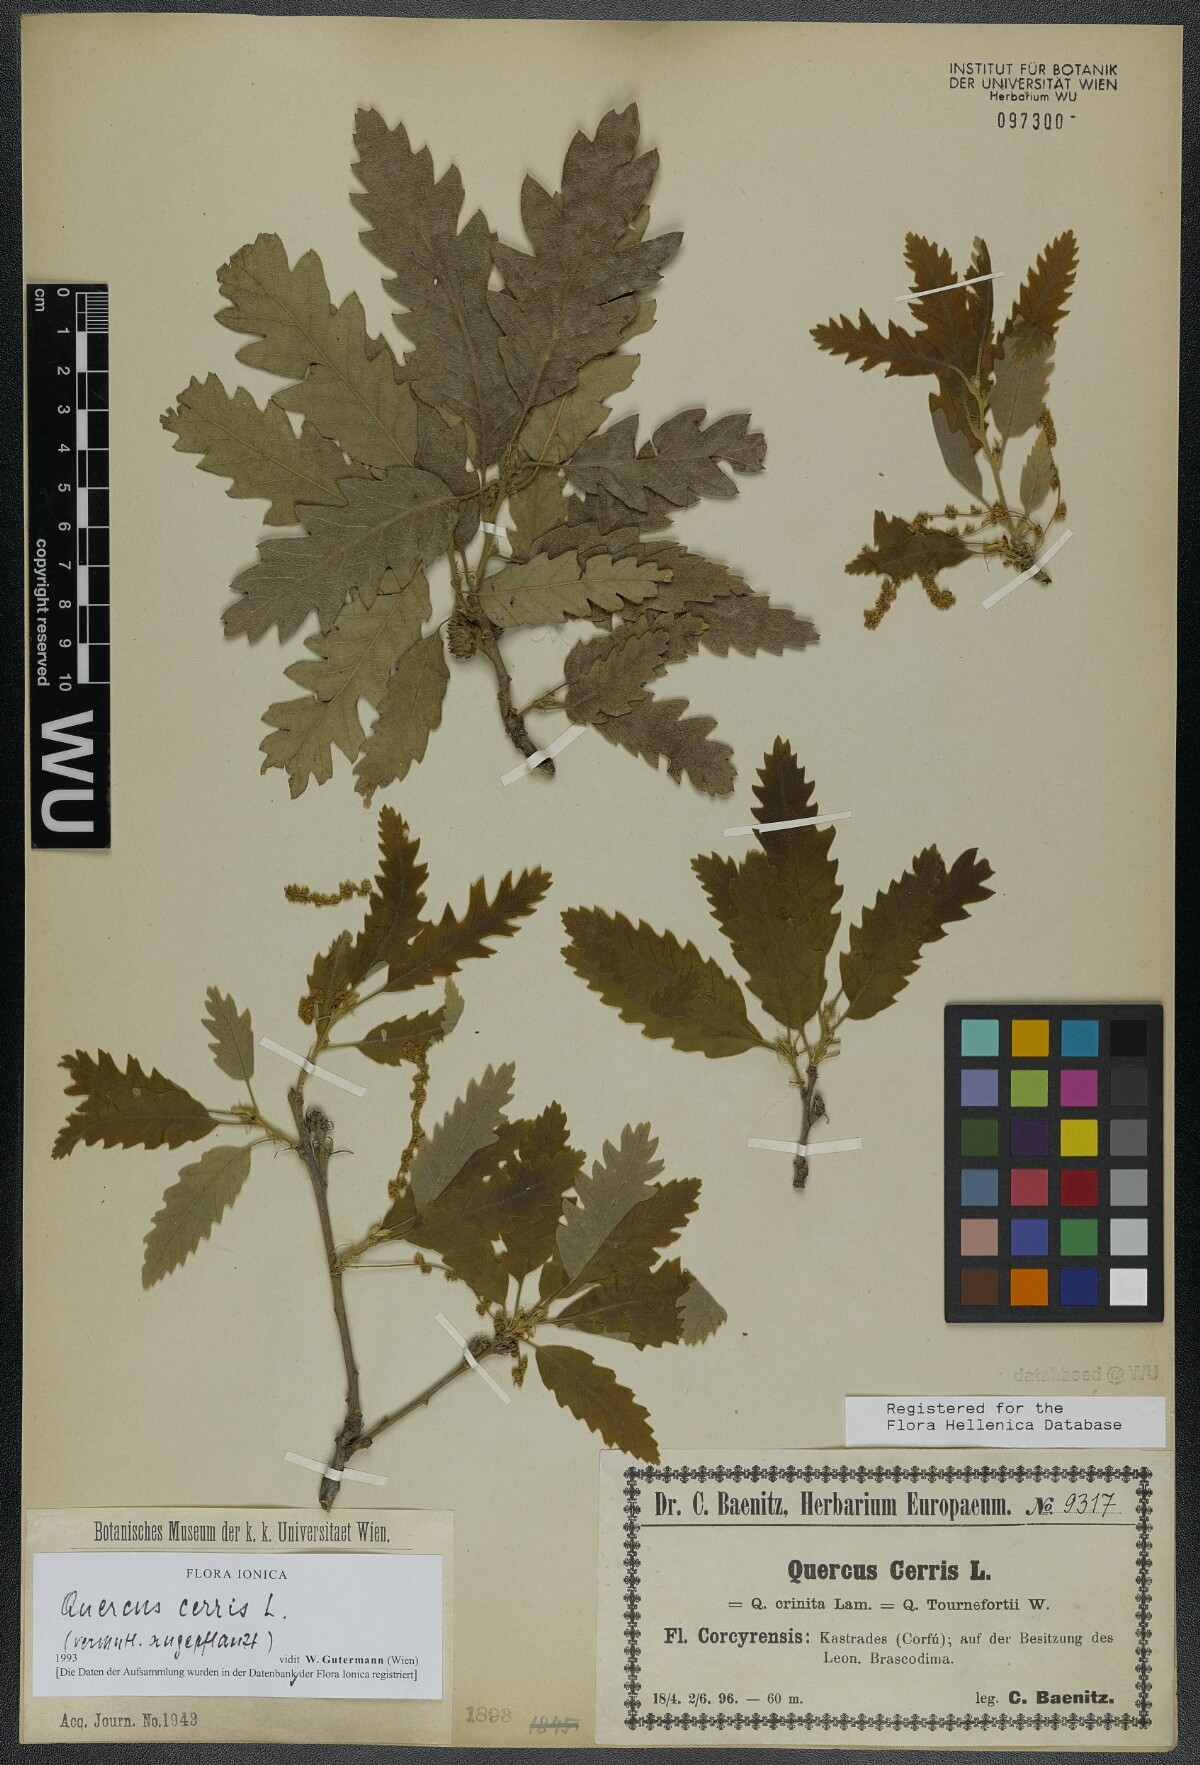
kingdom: Plantae
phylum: Tracheophyta
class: Magnoliopsida
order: Fagales
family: Fagaceae
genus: Quercus
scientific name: Quercus cerris
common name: Turkey oak
